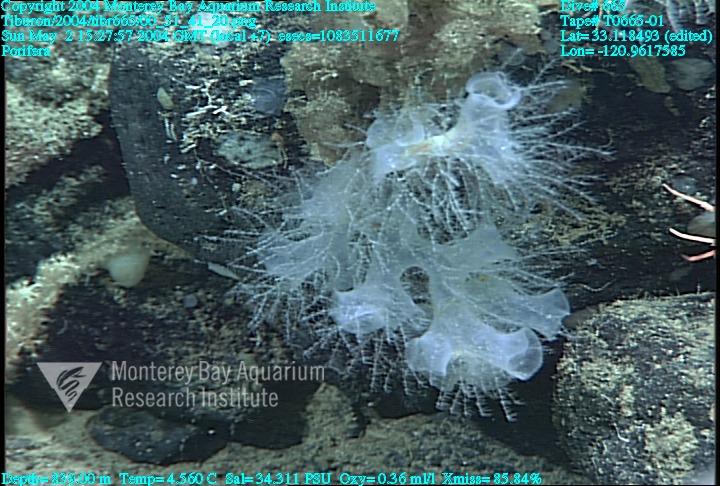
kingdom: Animalia
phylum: Porifera
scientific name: Porifera
